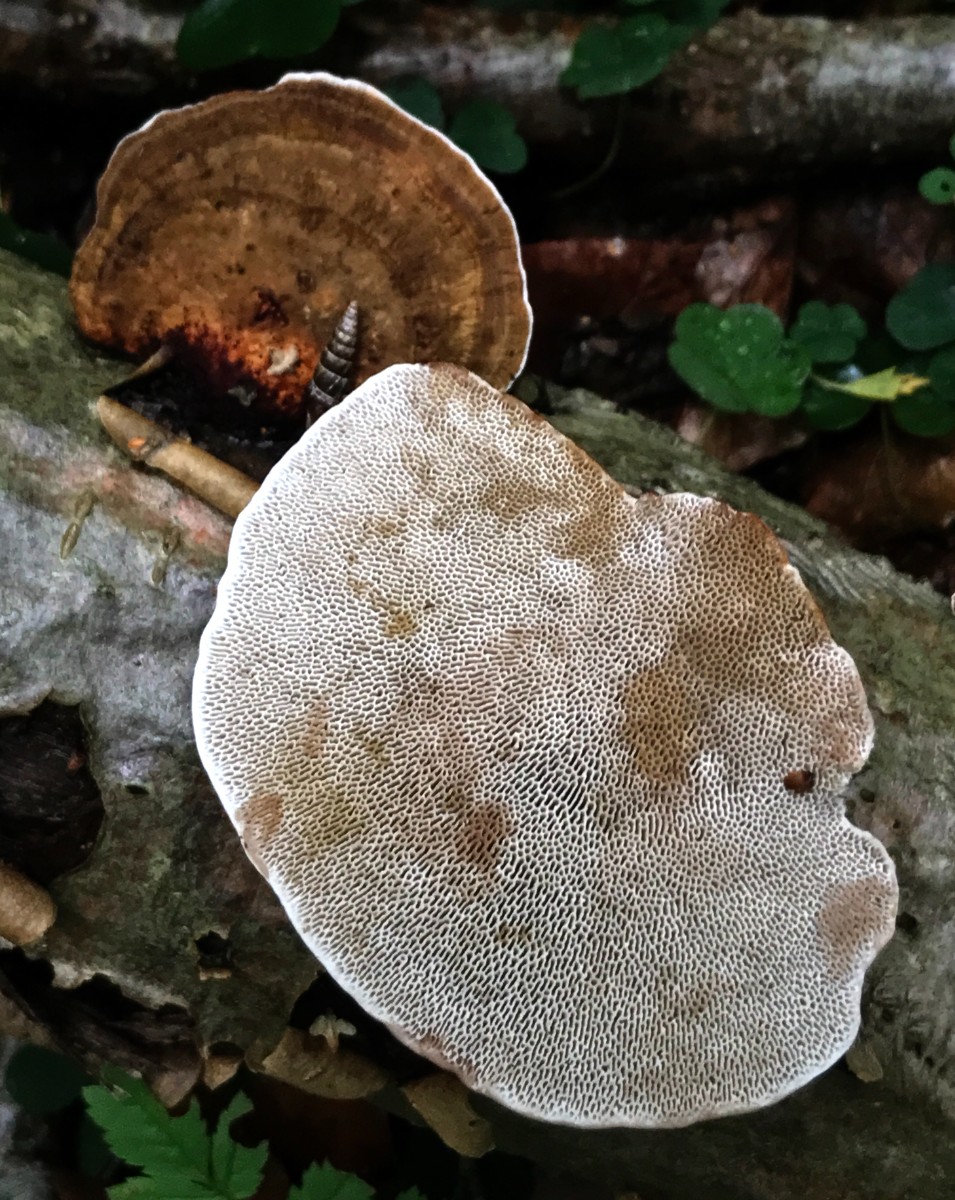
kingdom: Fungi
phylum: Basidiomycota
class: Agaricomycetes
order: Polyporales
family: Polyporaceae
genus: Daedaleopsis
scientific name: Daedaleopsis confragosa
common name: rødmende læderporesvamp
